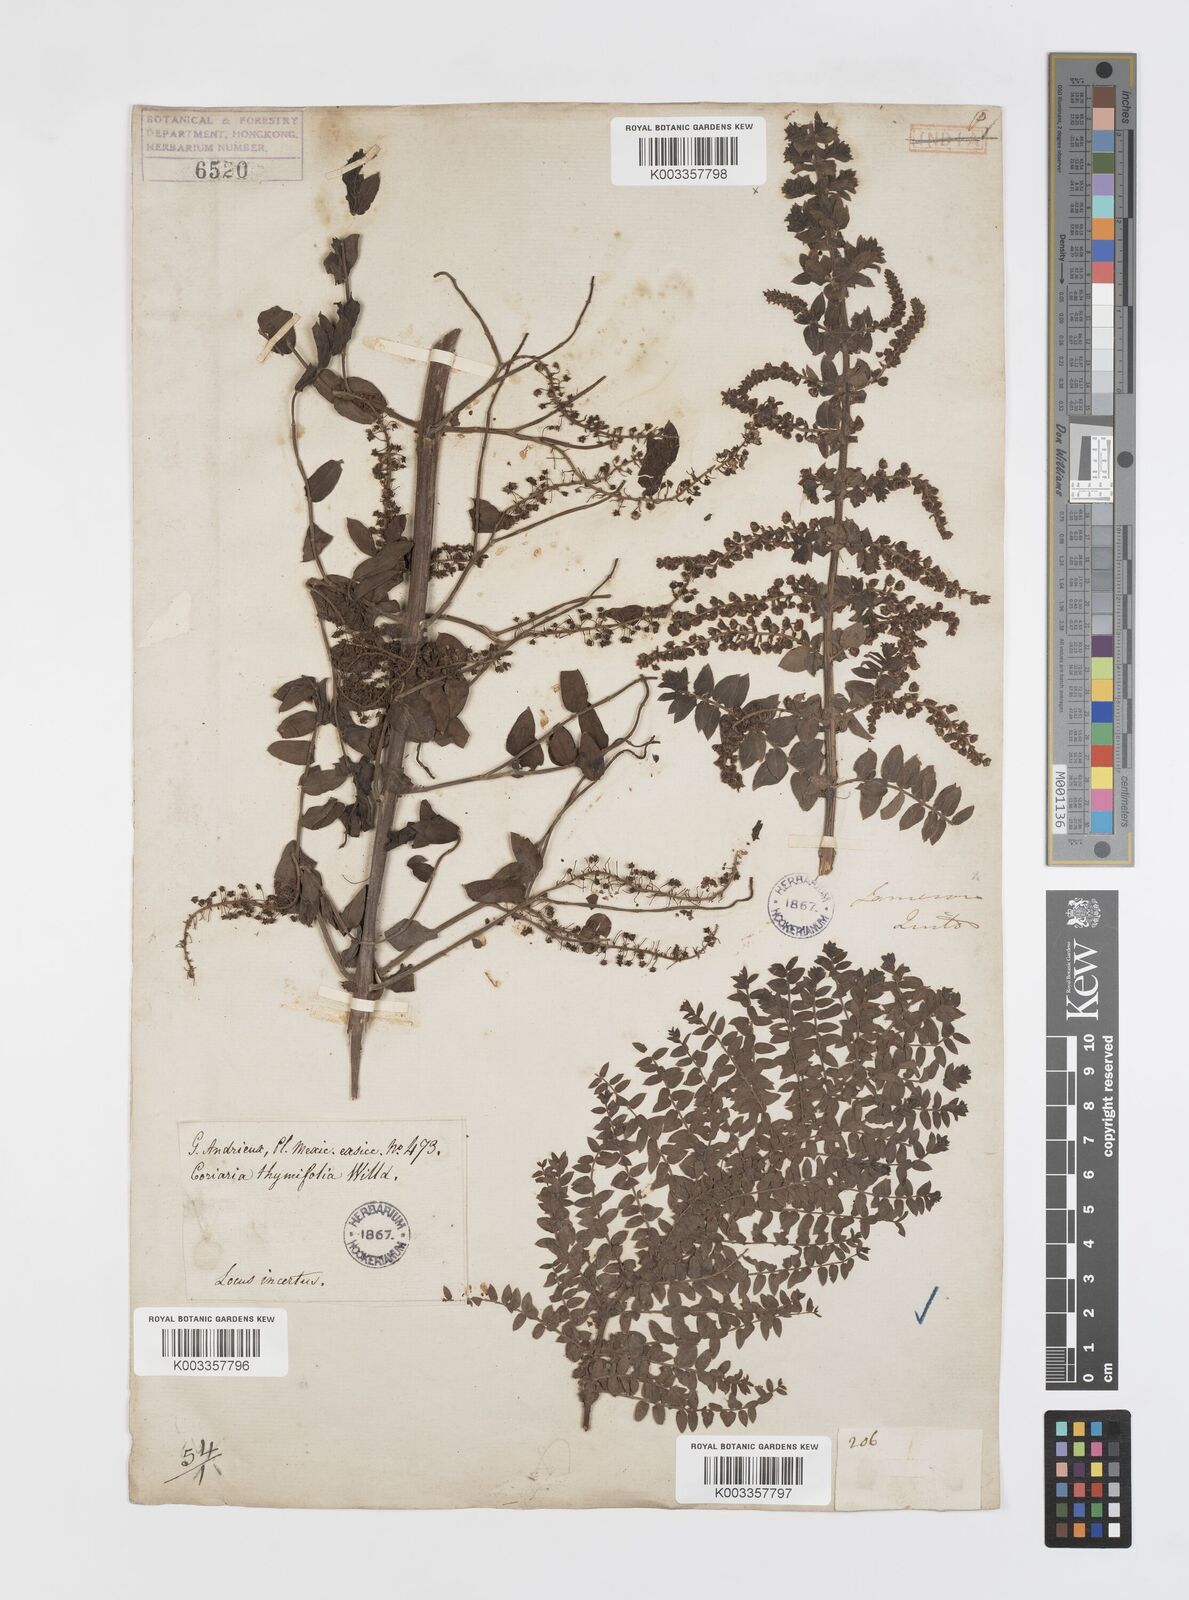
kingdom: Plantae
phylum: Tracheophyta
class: Magnoliopsida
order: Cucurbitales
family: Coriariaceae
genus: Coriaria
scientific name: Coriaria microphylla
